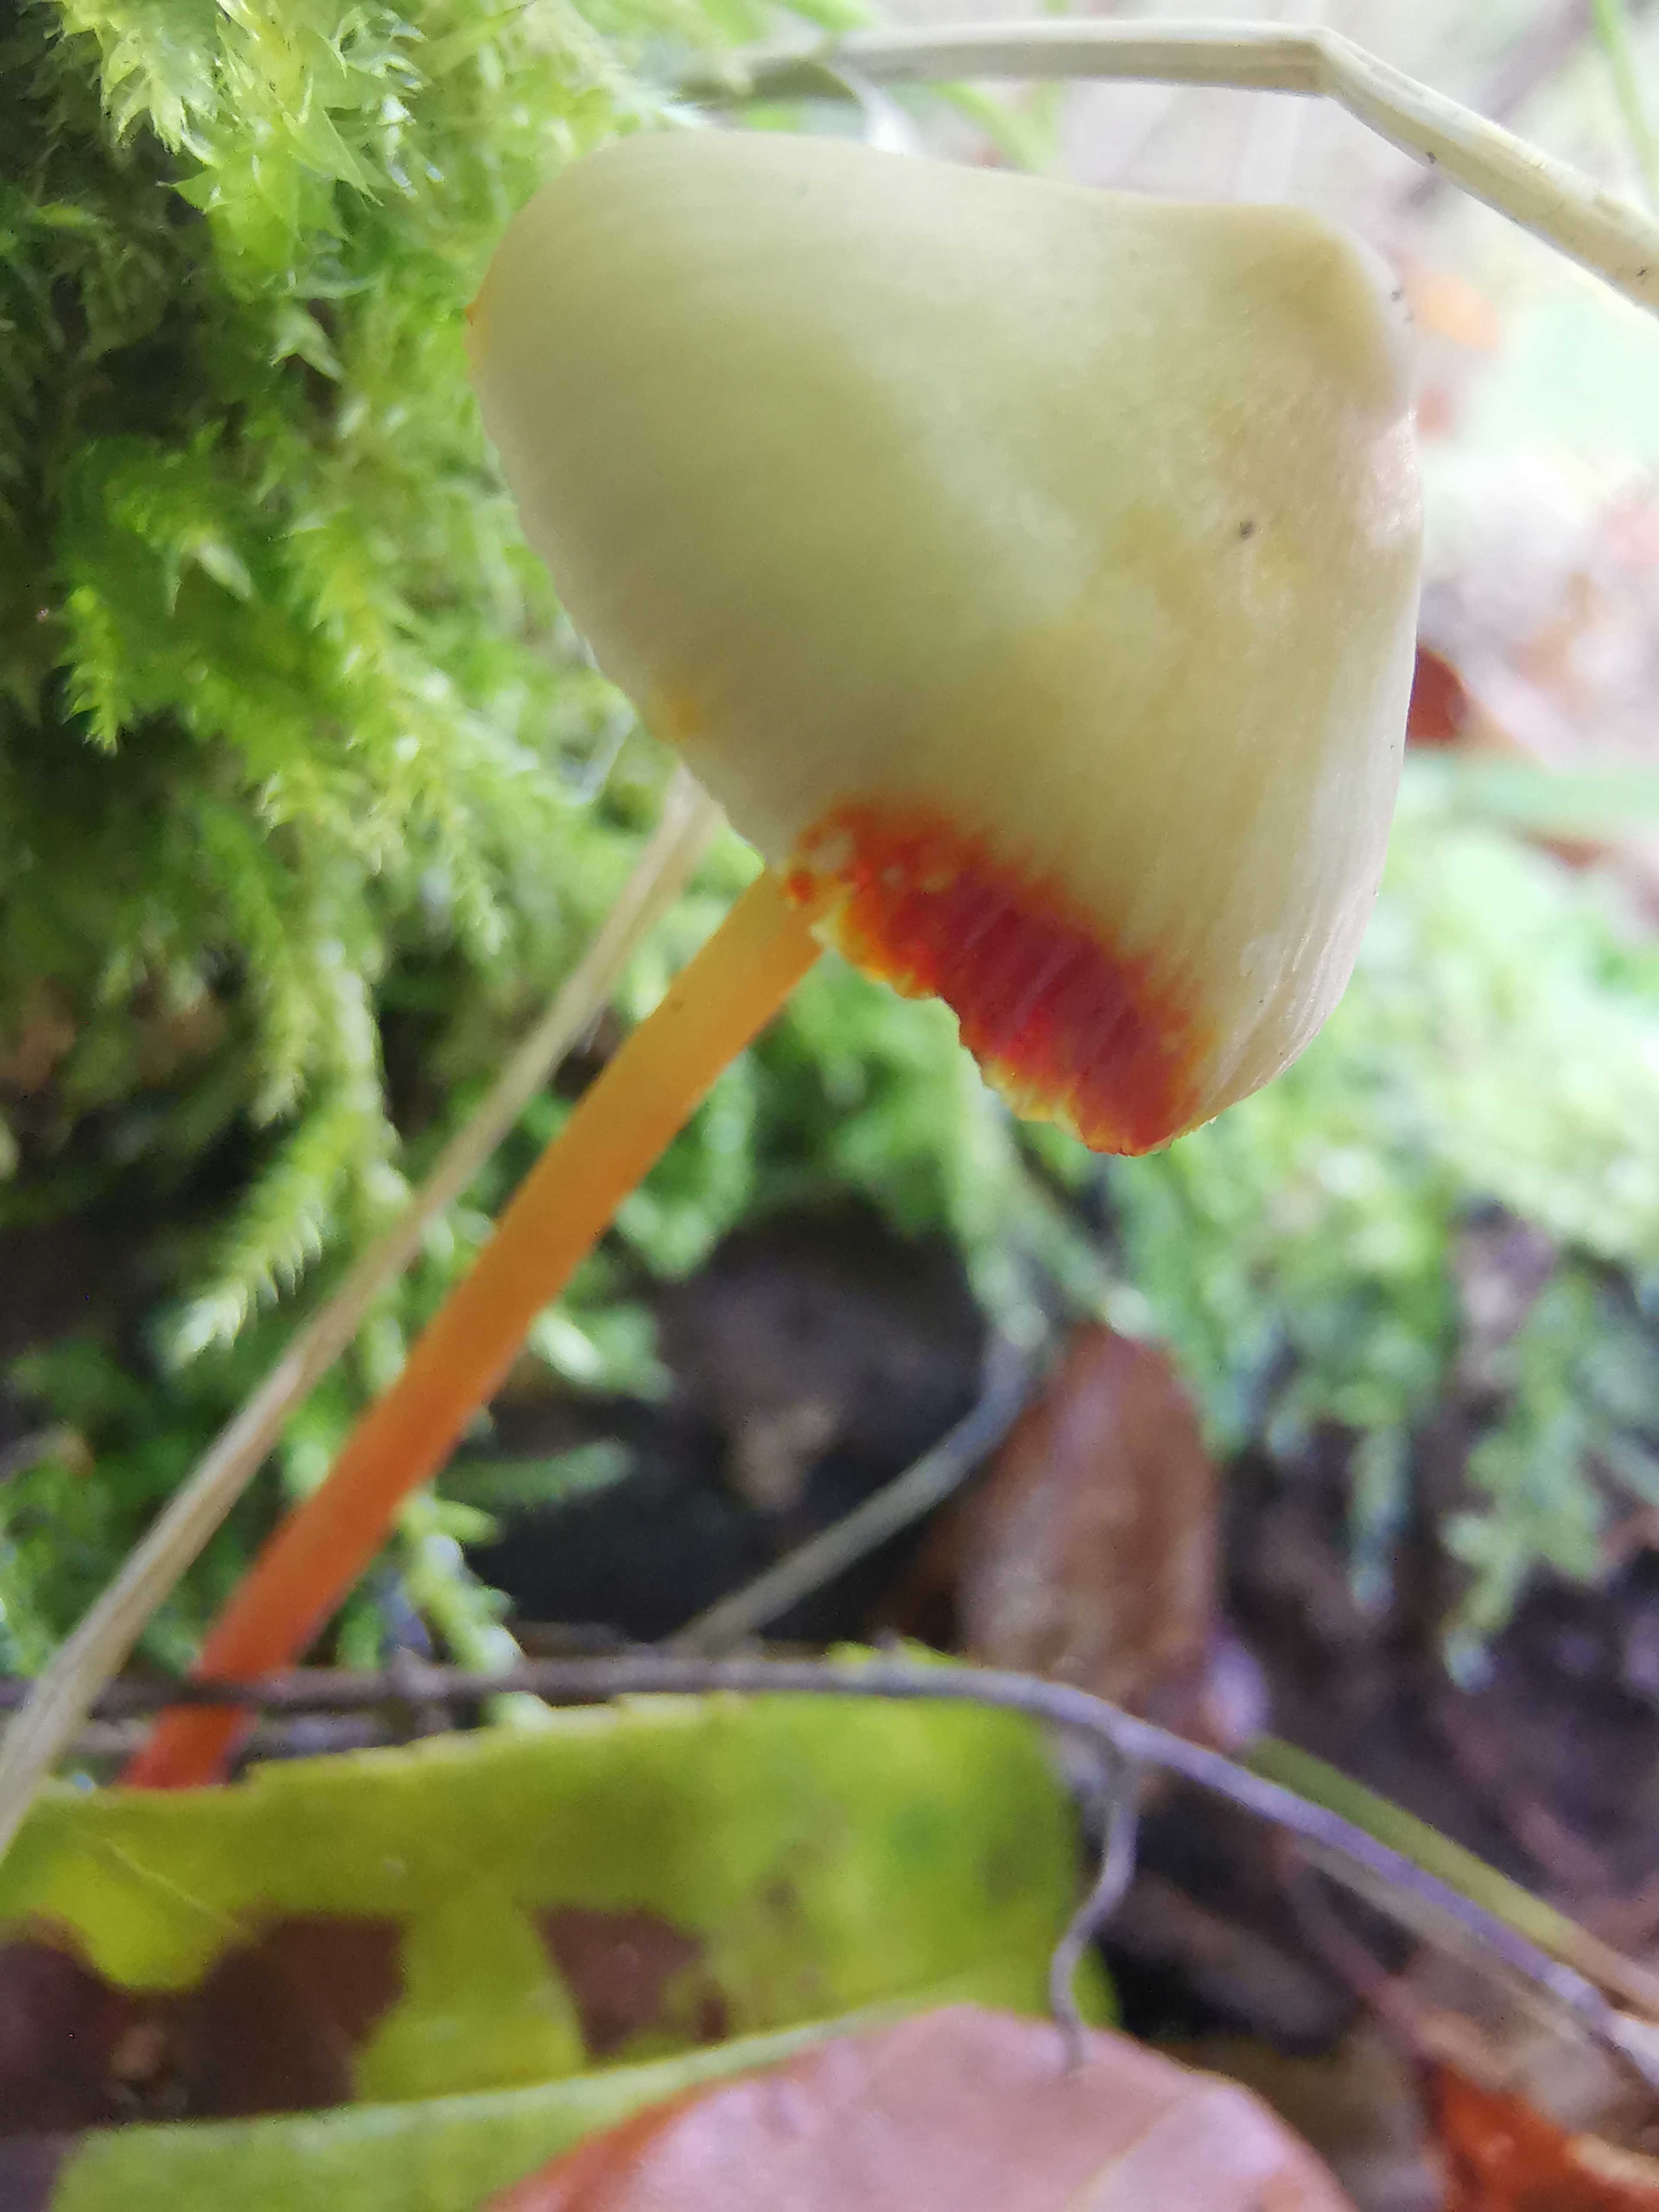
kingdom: Fungi
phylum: Basidiomycota
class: Agaricomycetes
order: Agaricales
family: Mycenaceae
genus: Mycena
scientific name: Mycena crocata
